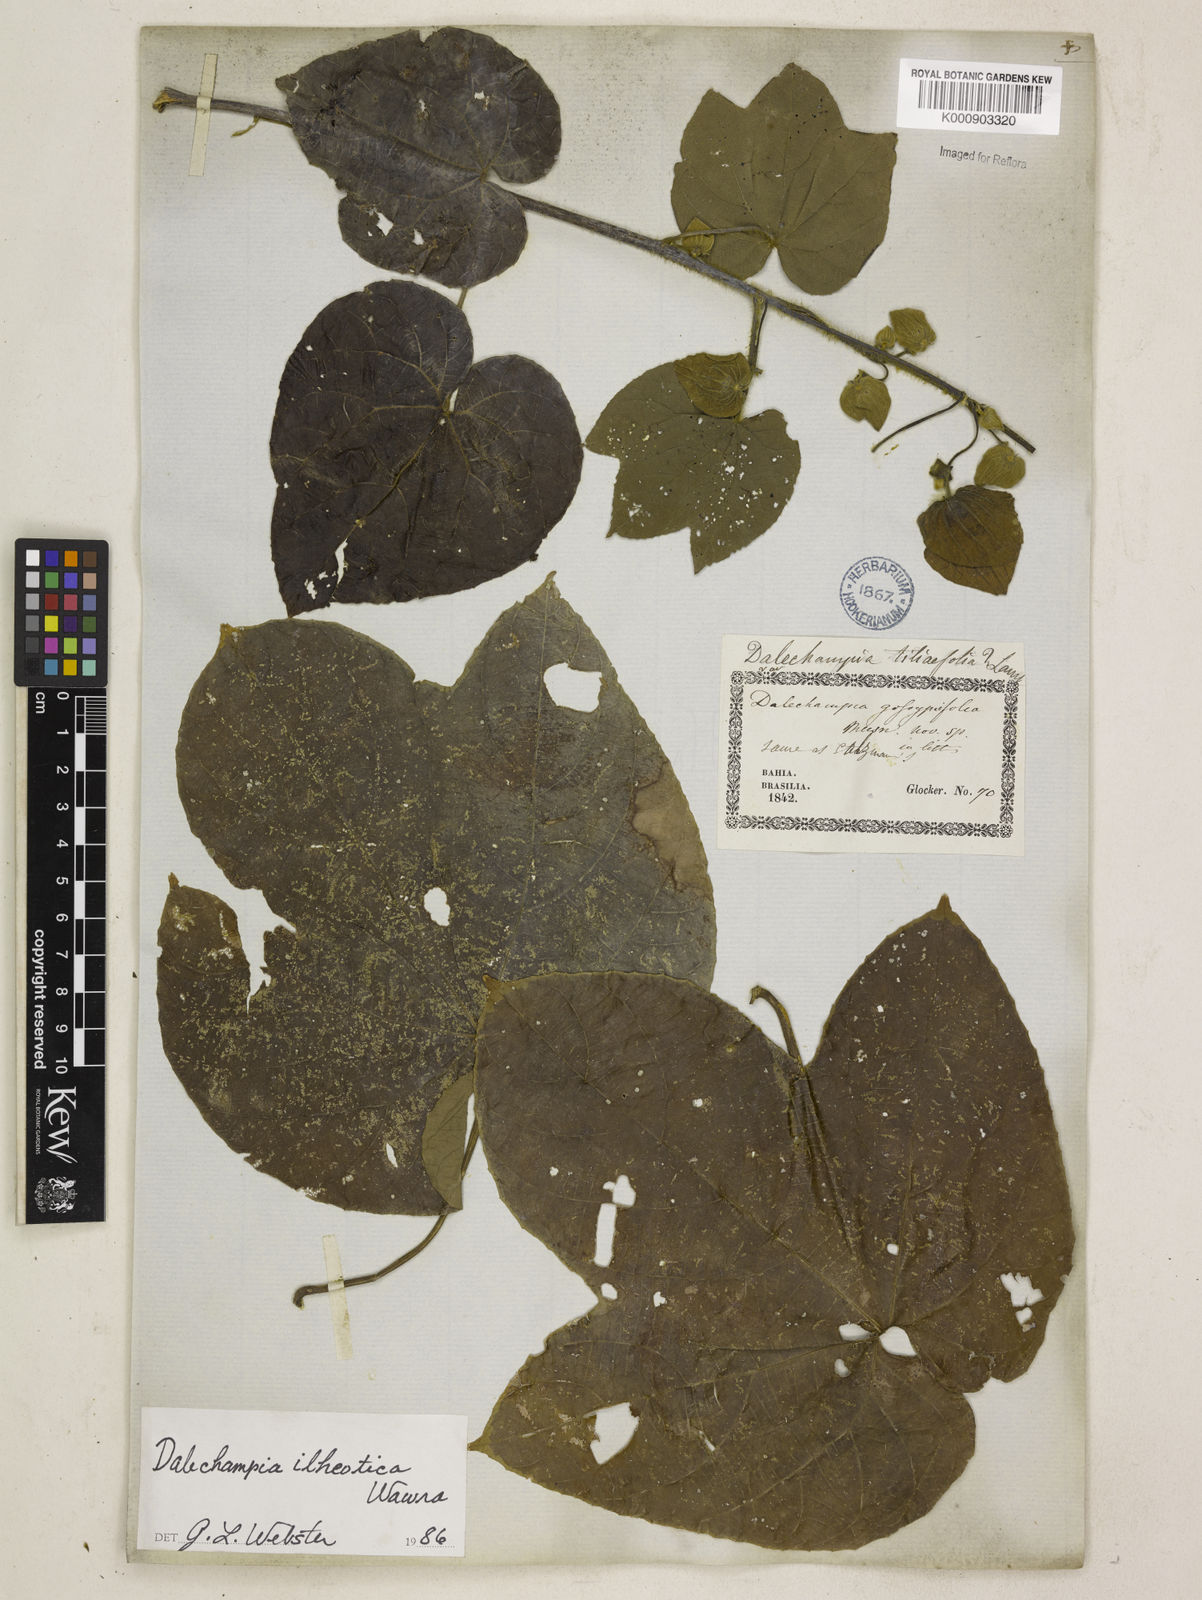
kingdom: Plantae
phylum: Tracheophyta
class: Magnoliopsida
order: Malpighiales
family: Euphorbiaceae
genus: Dalechampia
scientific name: Dalechampia ilheotica
